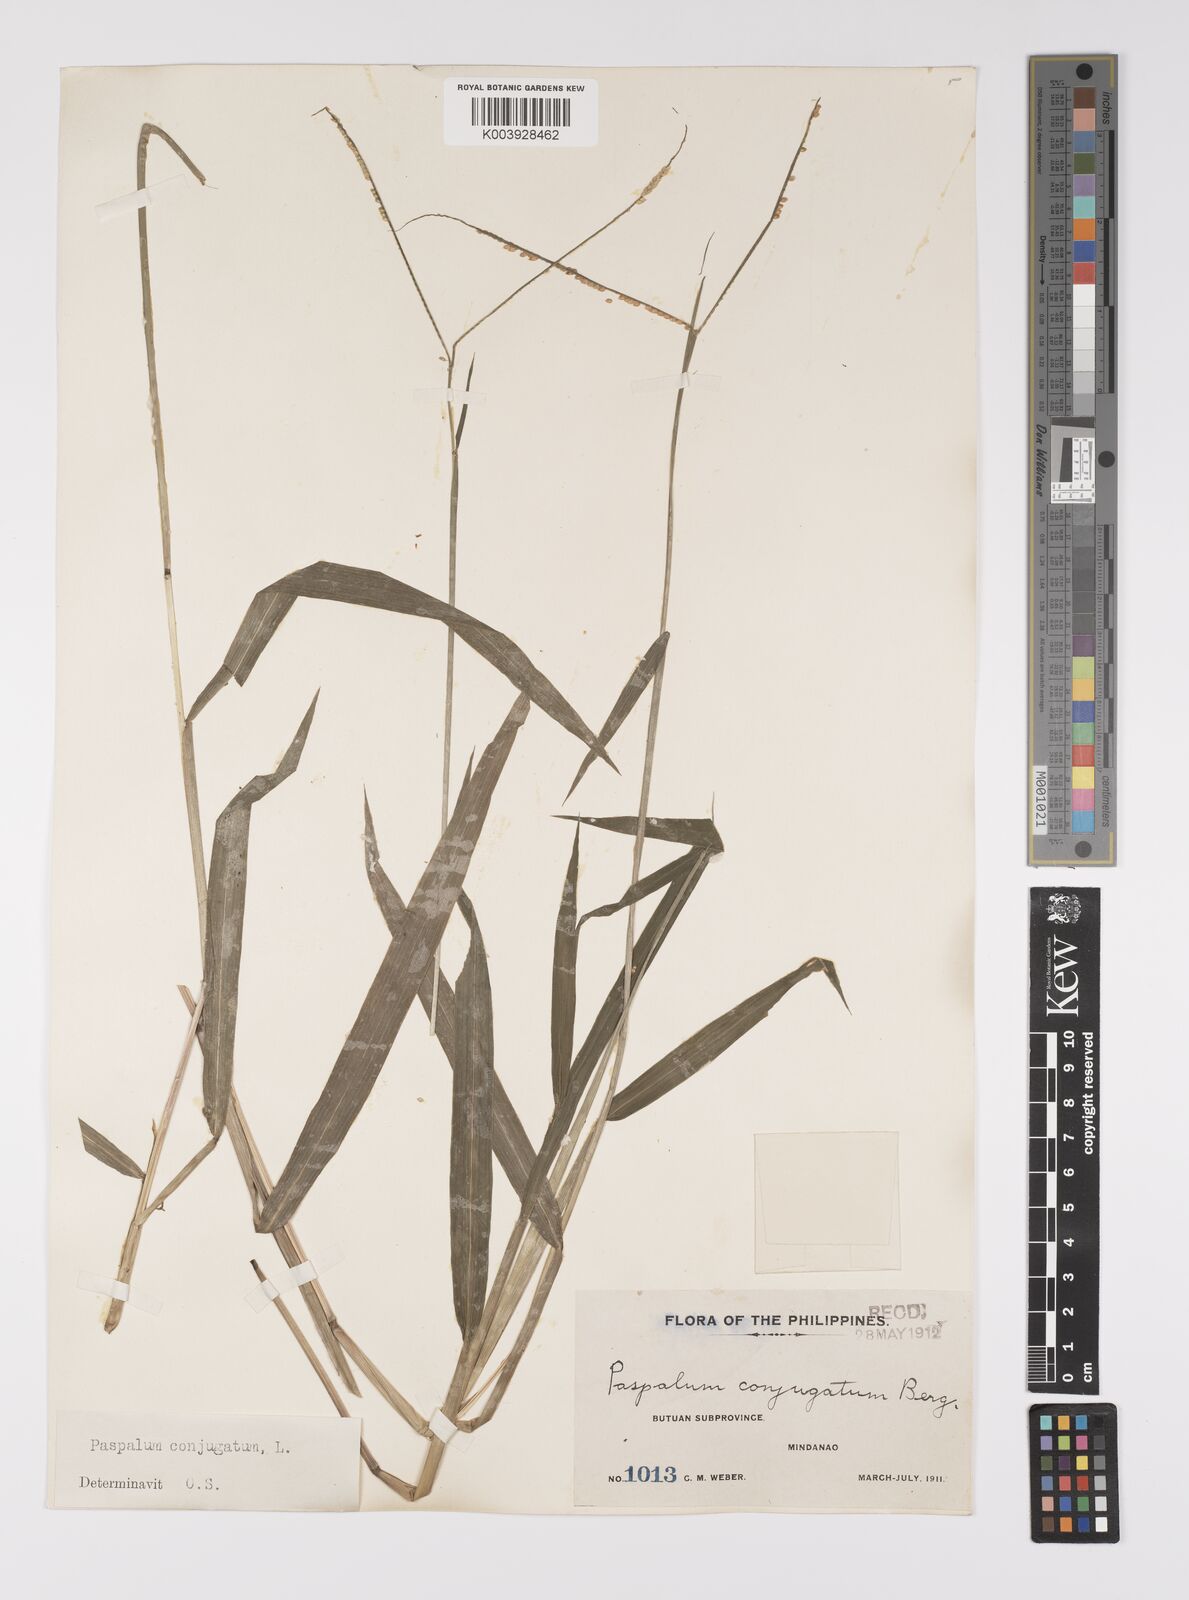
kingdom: Plantae
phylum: Tracheophyta
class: Liliopsida
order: Poales
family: Poaceae
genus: Paspalum
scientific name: Paspalum conjugatum
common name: Hilograss
